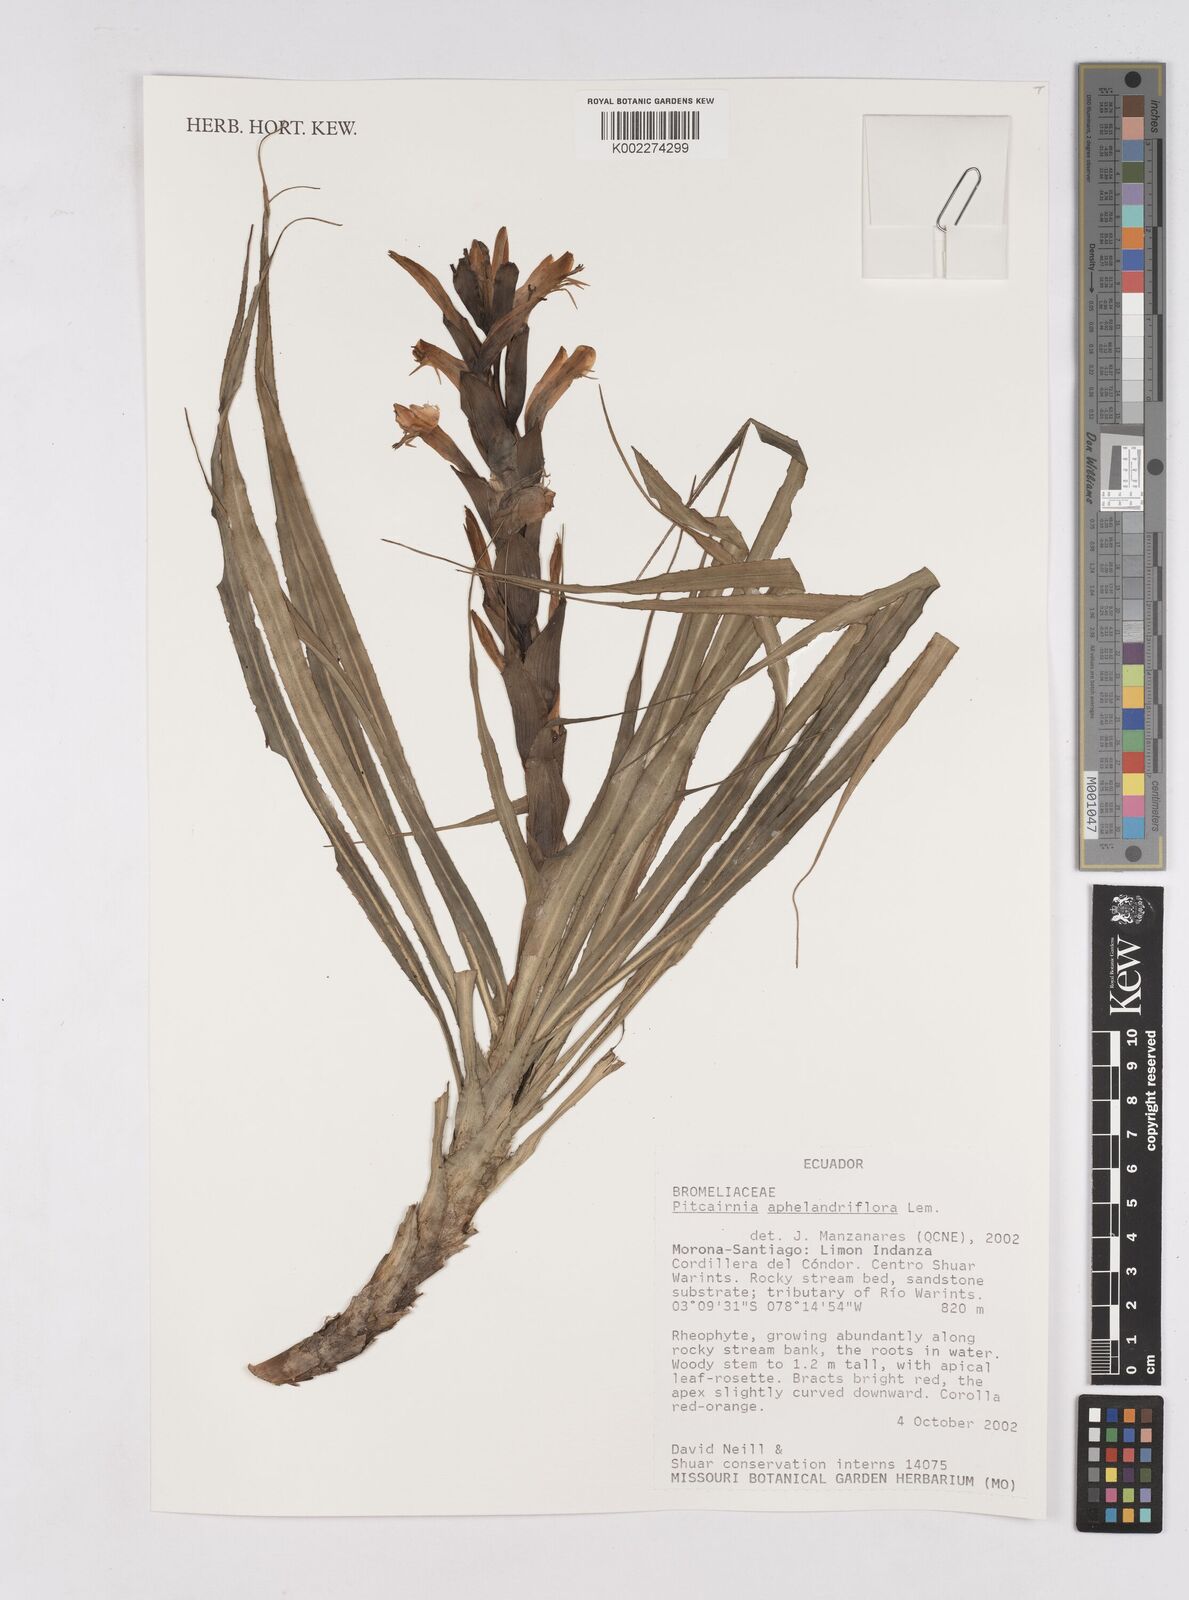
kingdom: Plantae
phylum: Tracheophyta
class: Liliopsida
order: Poales
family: Bromeliaceae
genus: Pitcairnia
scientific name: Pitcairnia aphelandriflora
